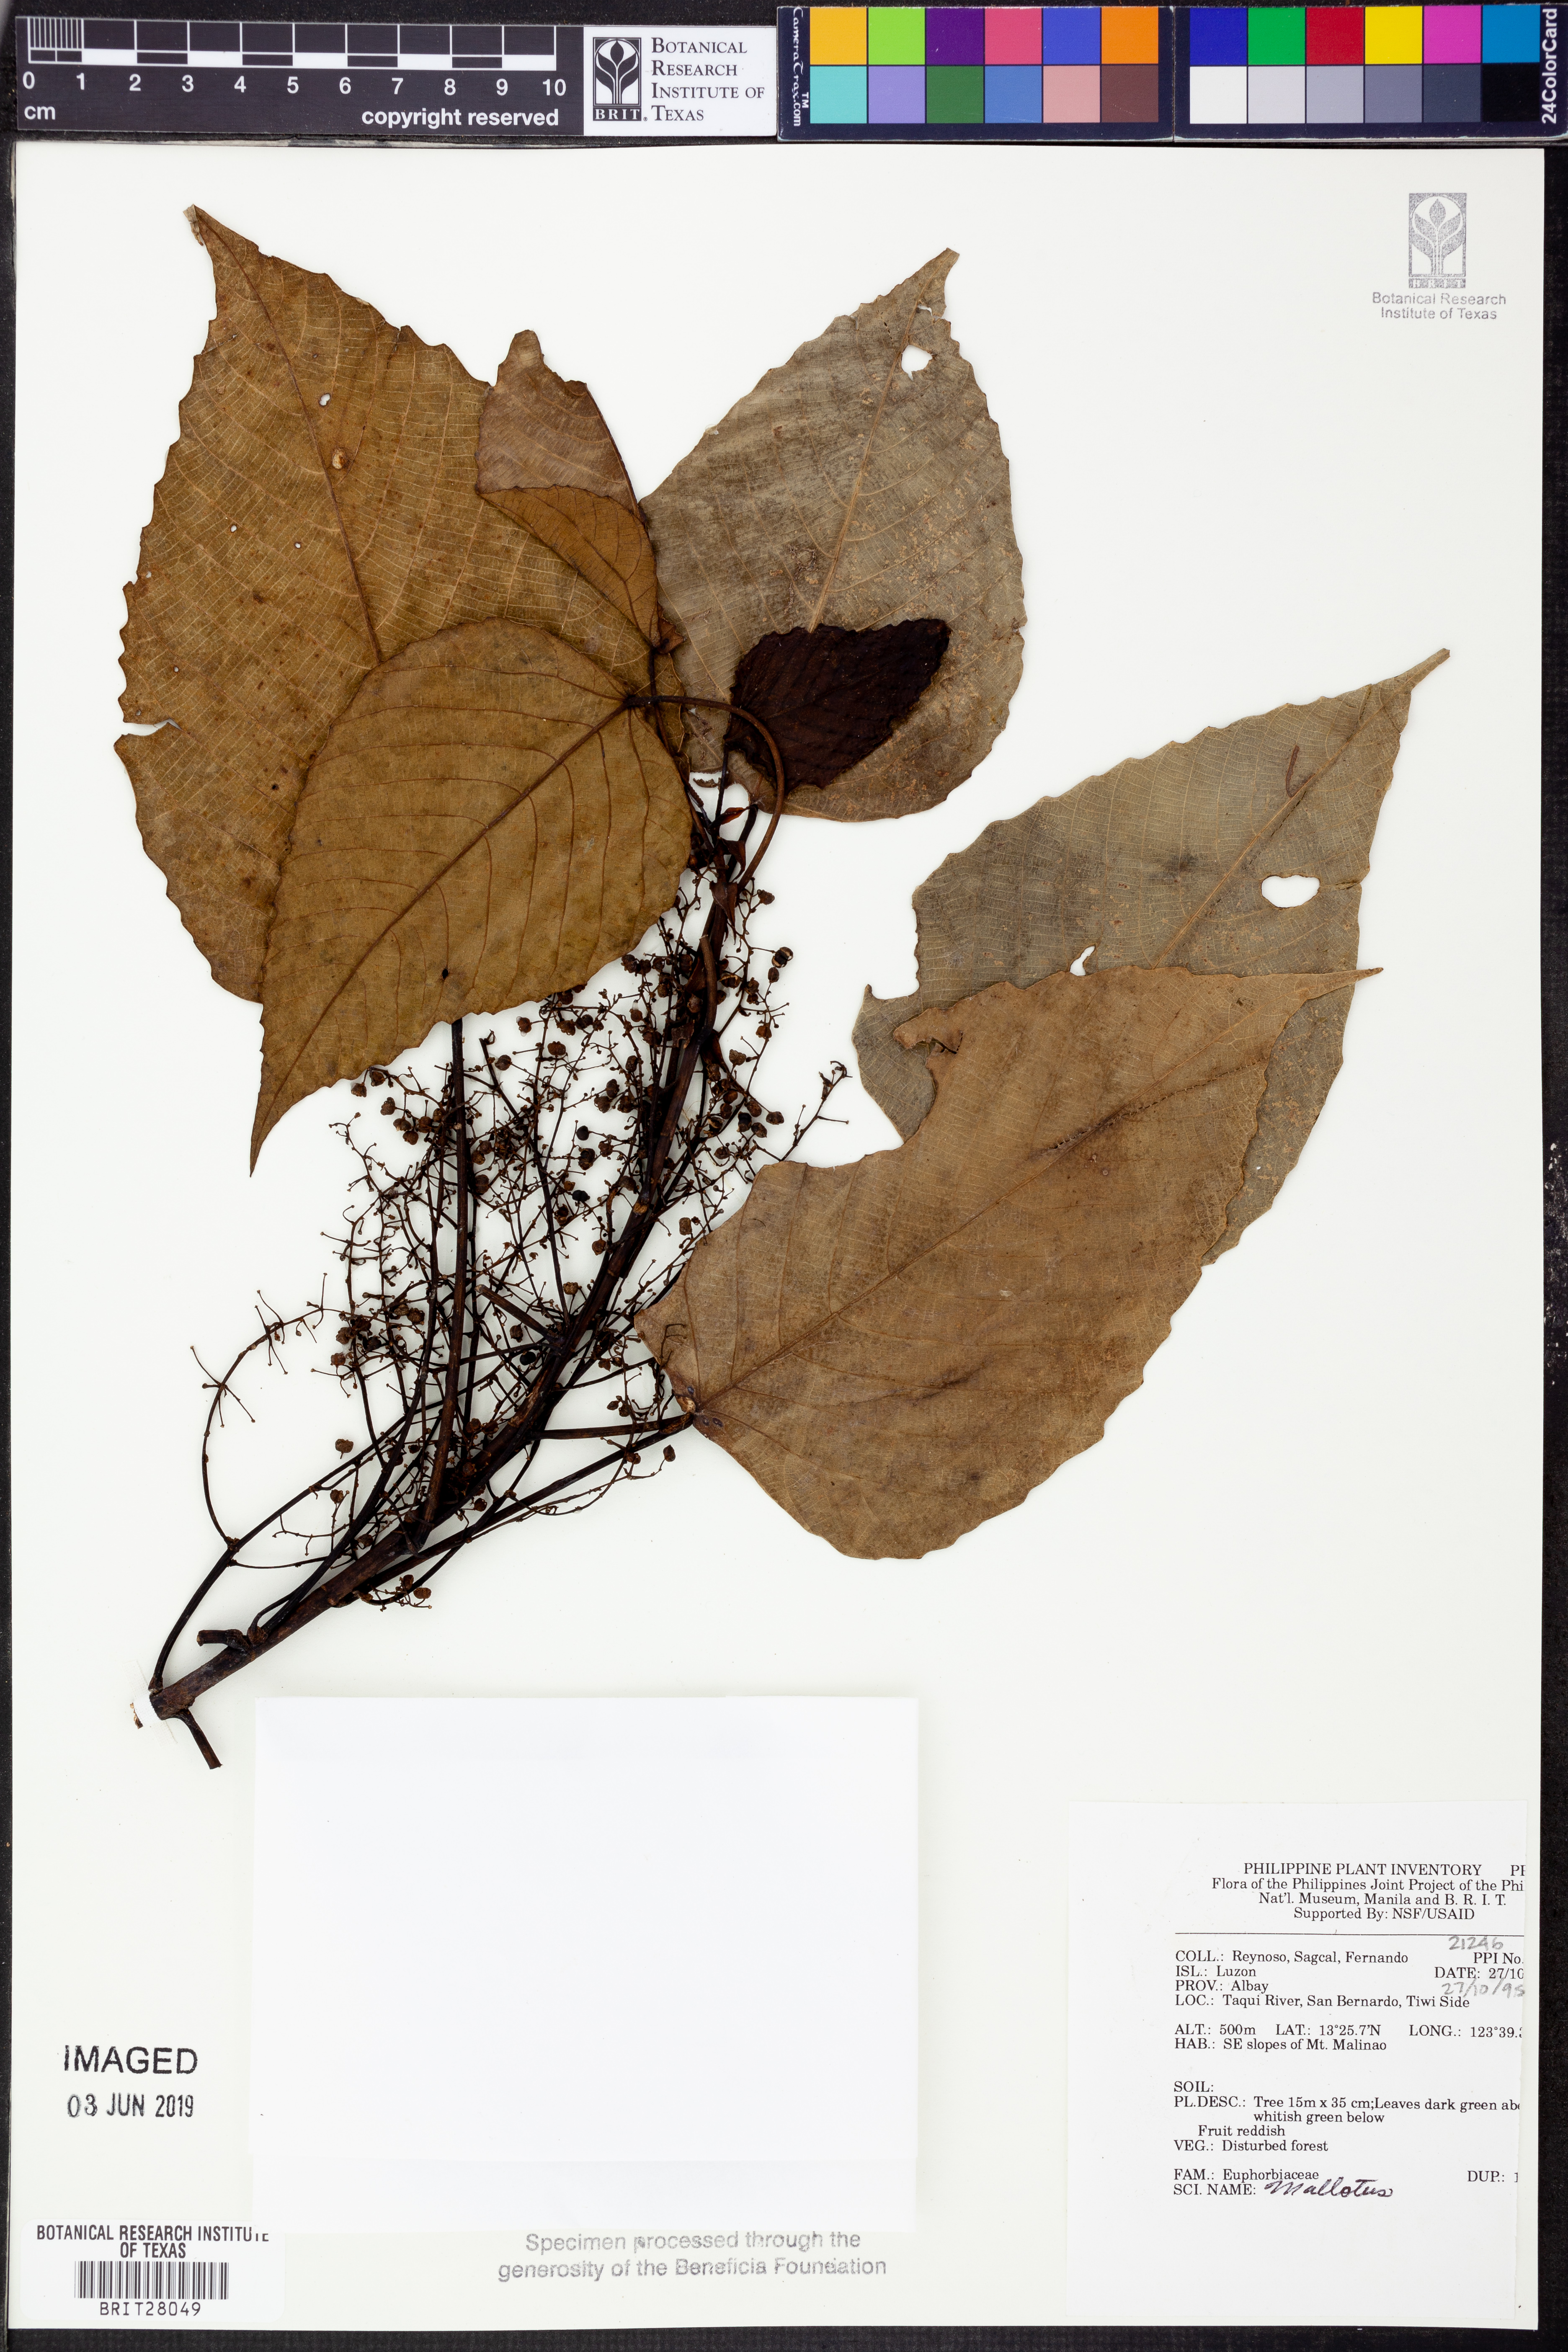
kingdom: Plantae
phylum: Tracheophyta
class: Magnoliopsida
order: Malpighiales
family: Euphorbiaceae
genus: Mallotus
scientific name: Mallotus
